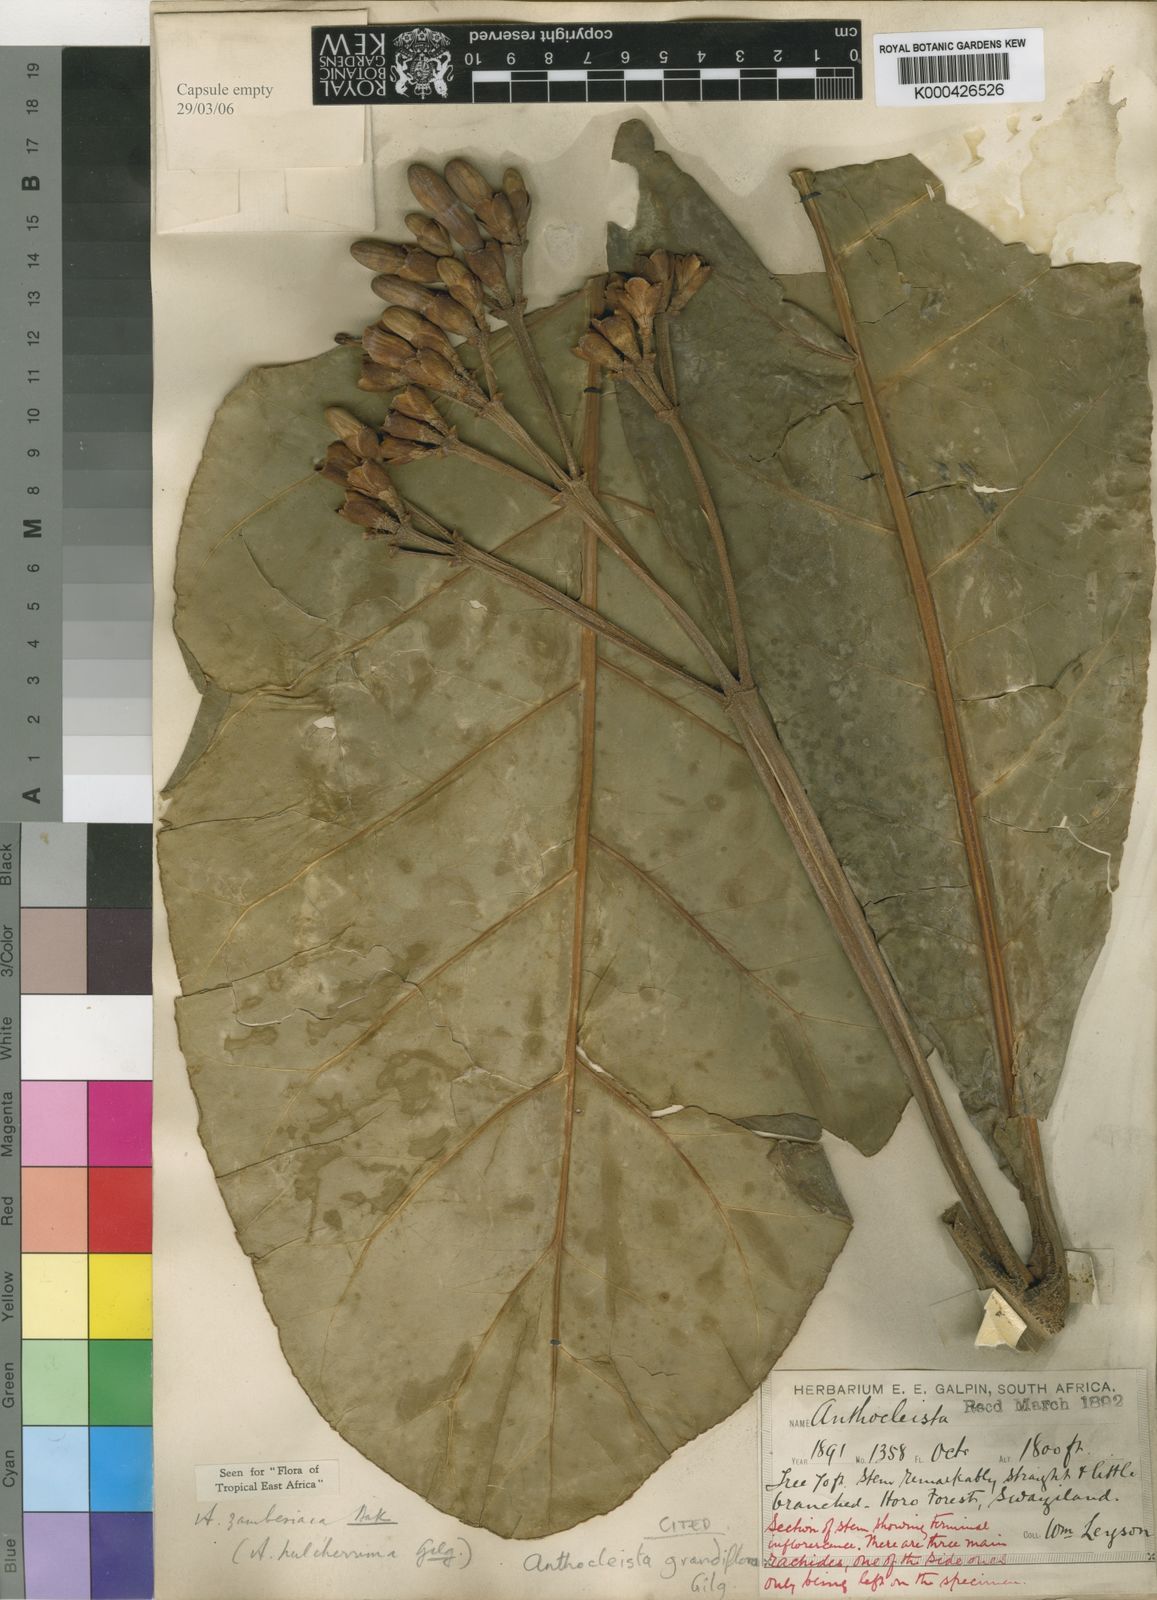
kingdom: Plantae
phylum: Tracheophyta
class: Magnoliopsida
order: Gentianales
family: Gentianaceae
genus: Anthocleista
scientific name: Anthocleista grandiflora
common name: Forest big-leaf
